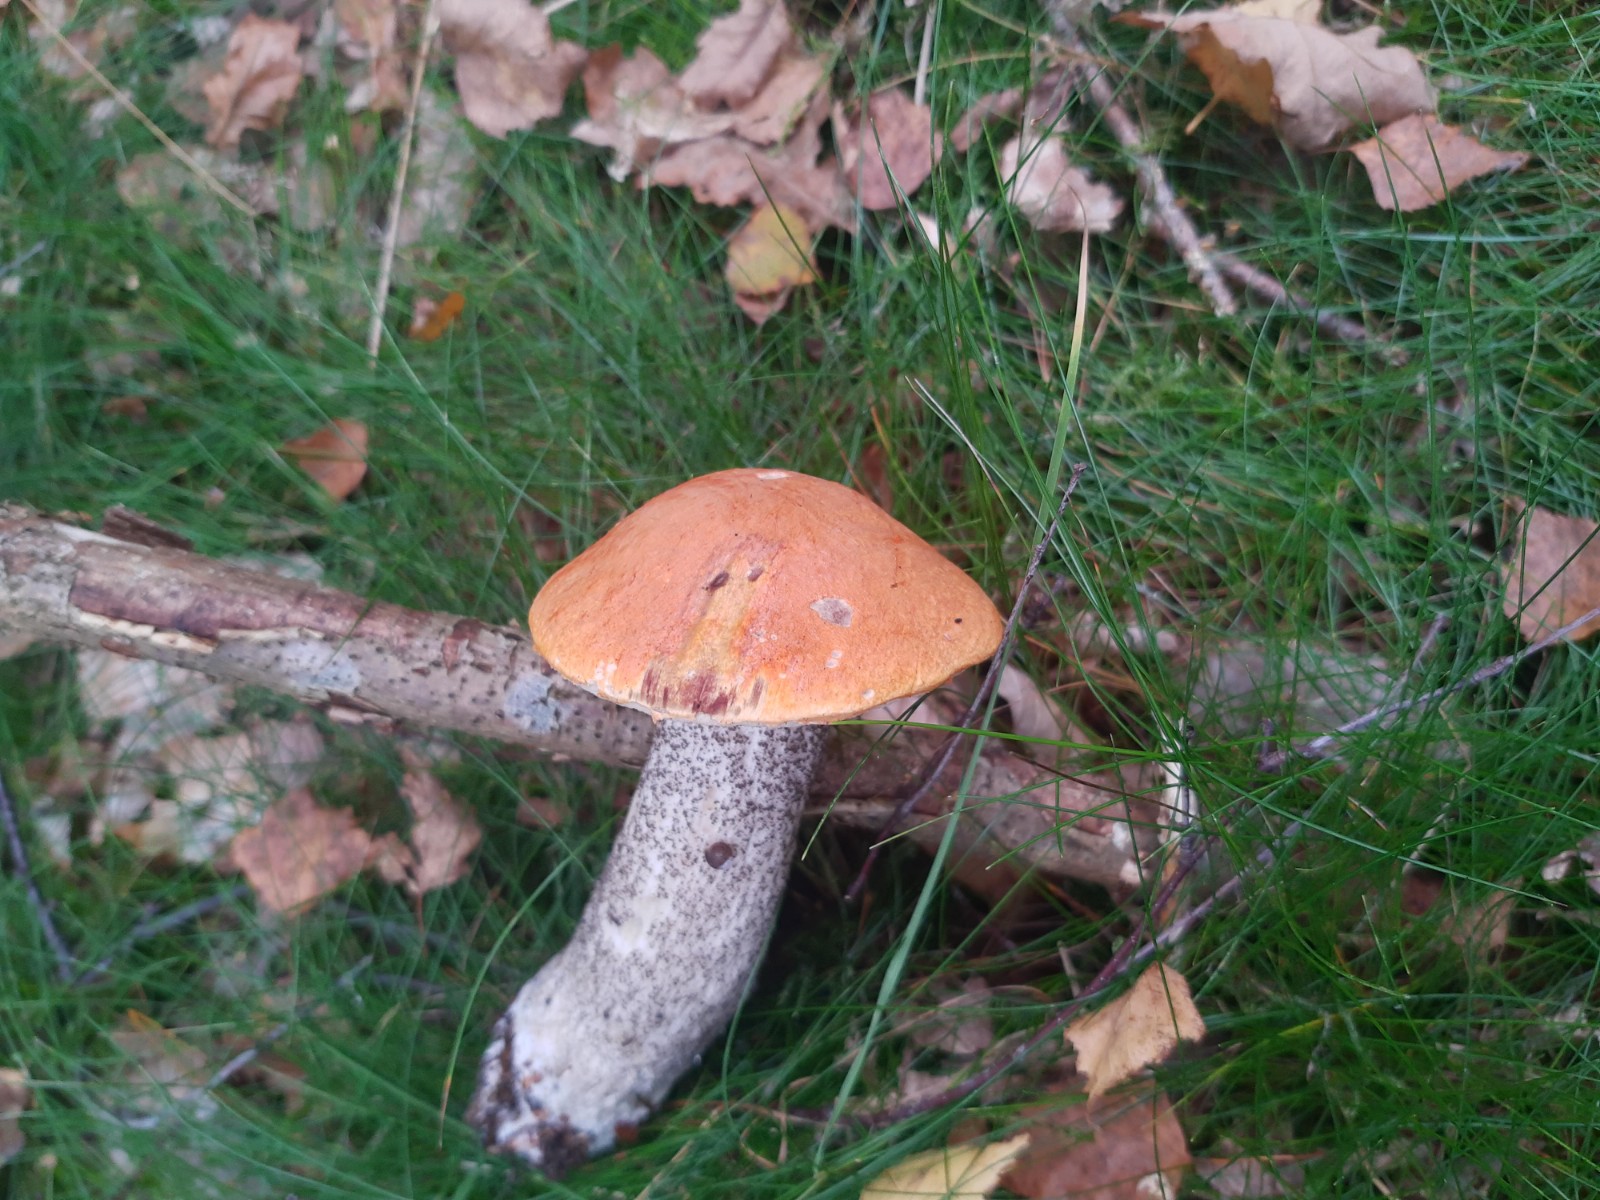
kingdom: Fungi
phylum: Basidiomycota
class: Agaricomycetes
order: Boletales
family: Boletaceae
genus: Leccinum
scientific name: Leccinum versipelle
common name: orange skælrørhat
